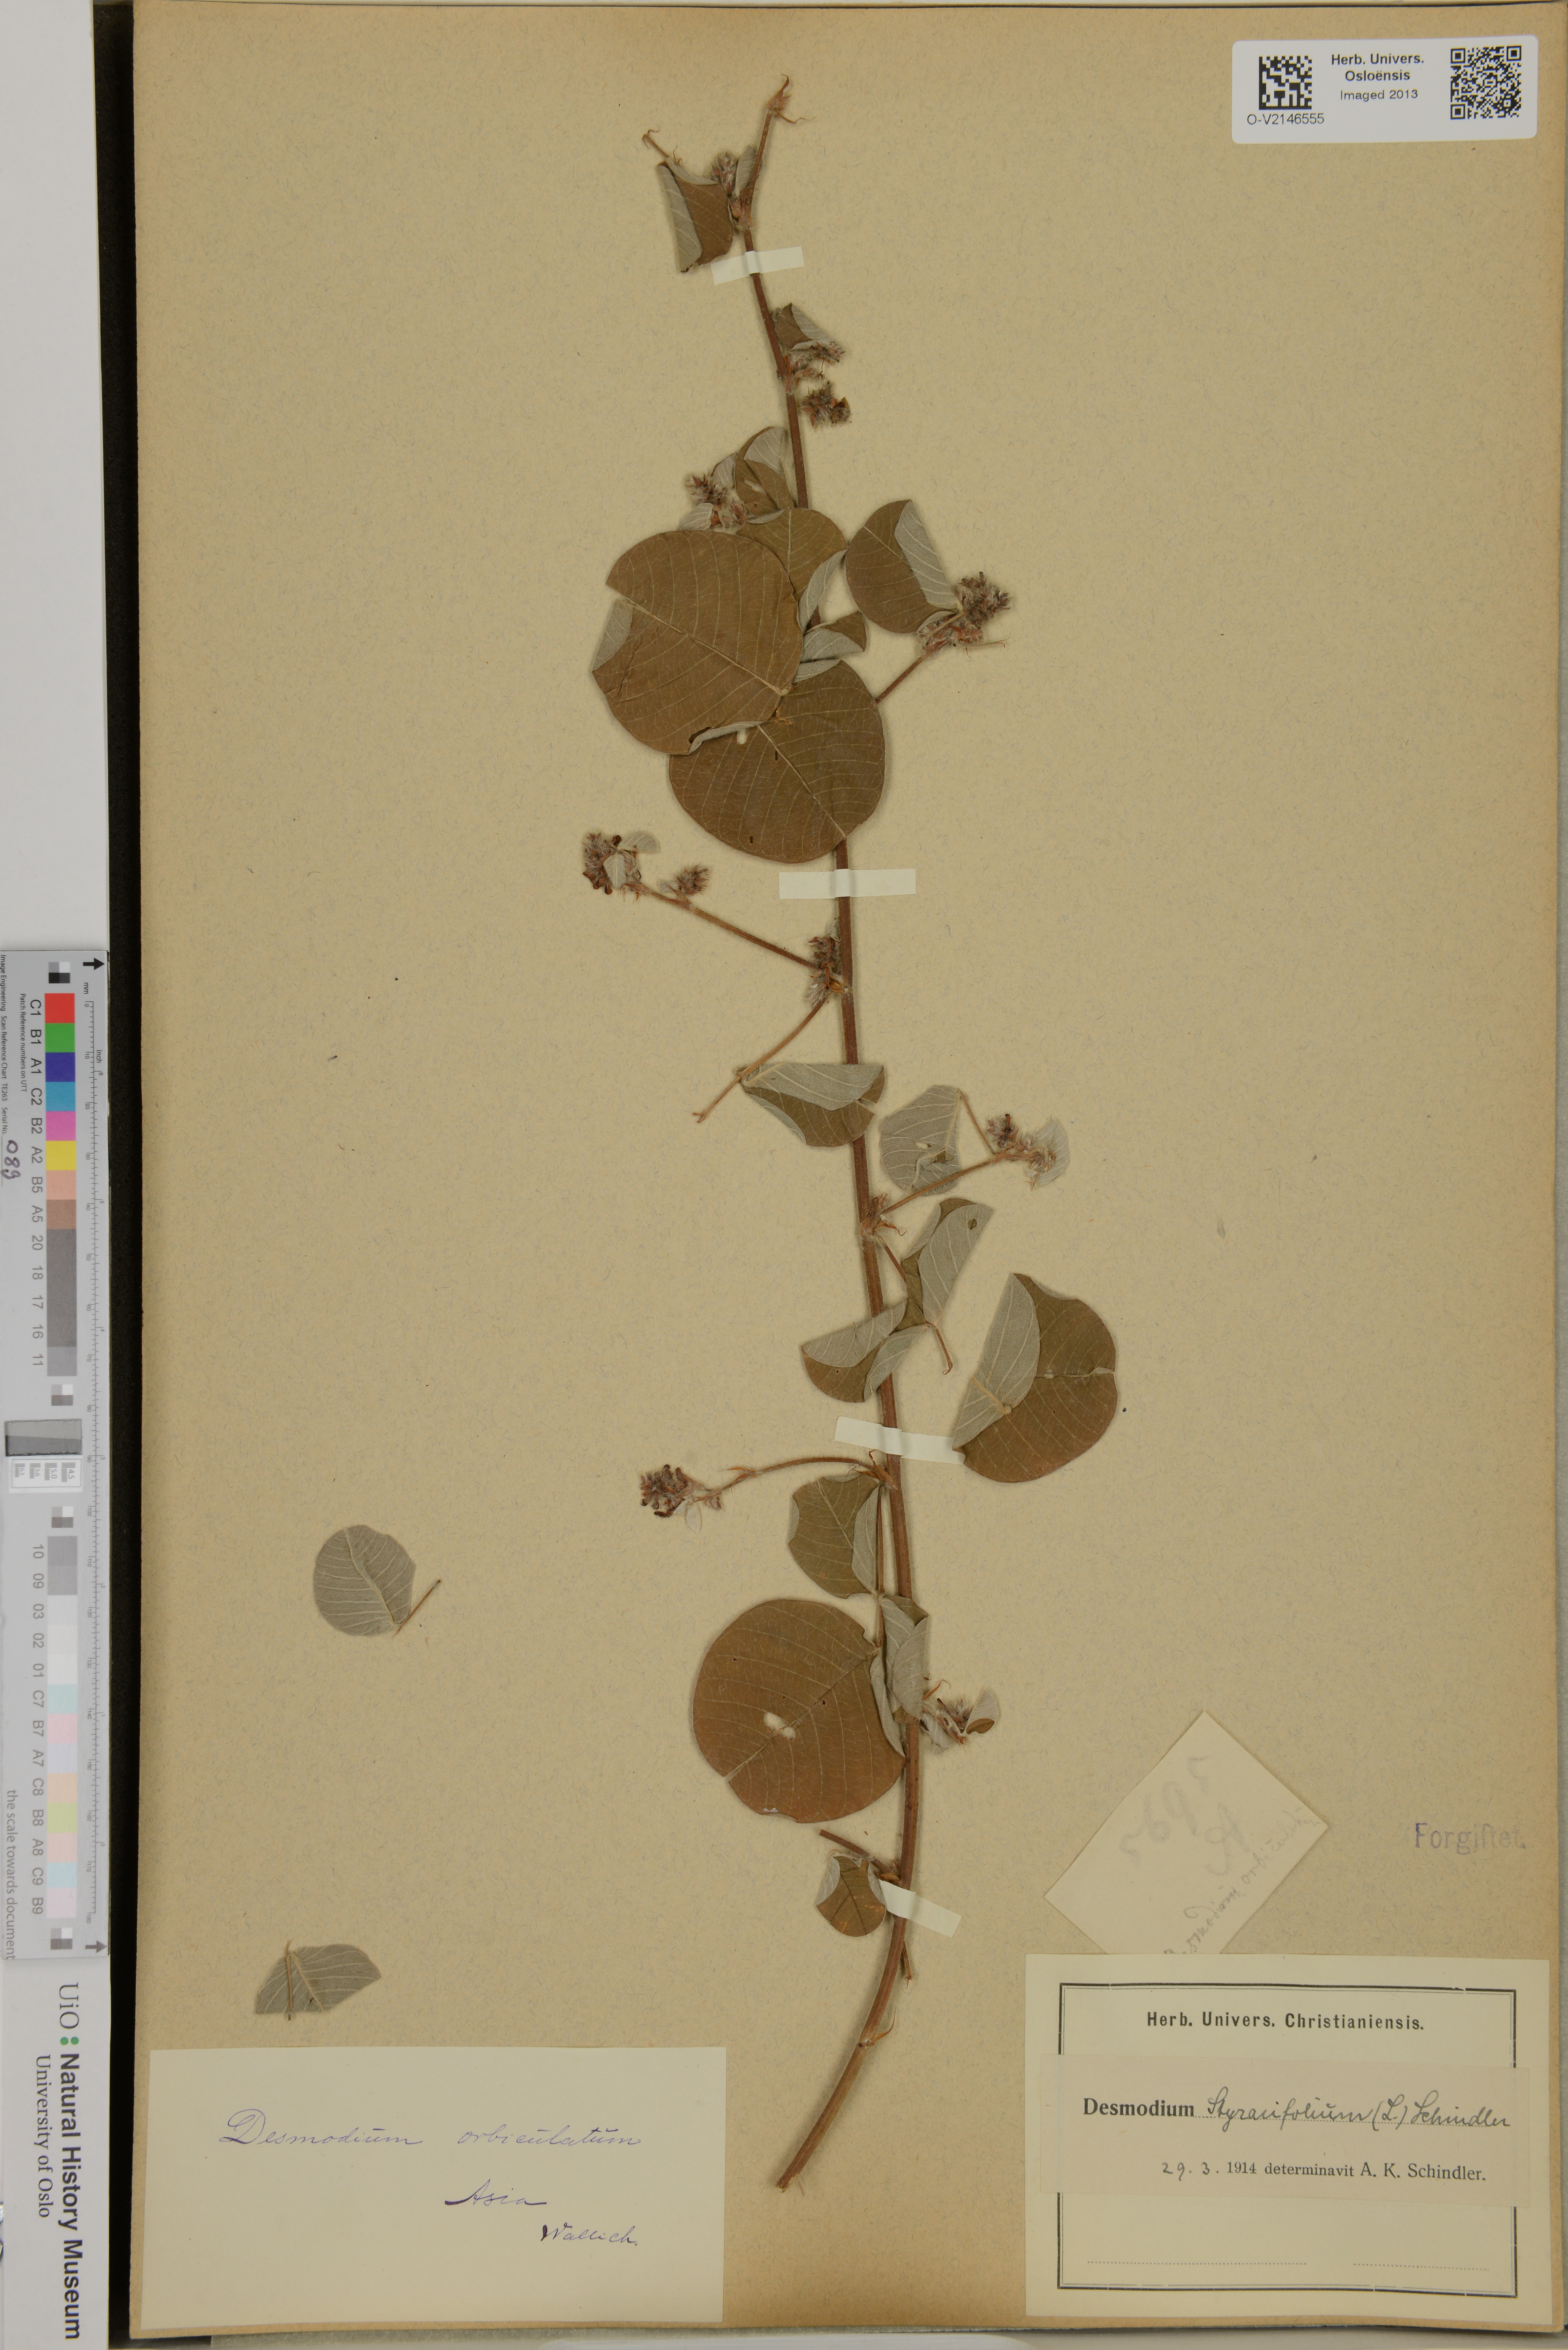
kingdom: Plantae
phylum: Tracheophyta
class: Magnoliopsida
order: Fabales
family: Fabaceae
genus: Desmodium
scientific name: Desmodium orbiculatum
